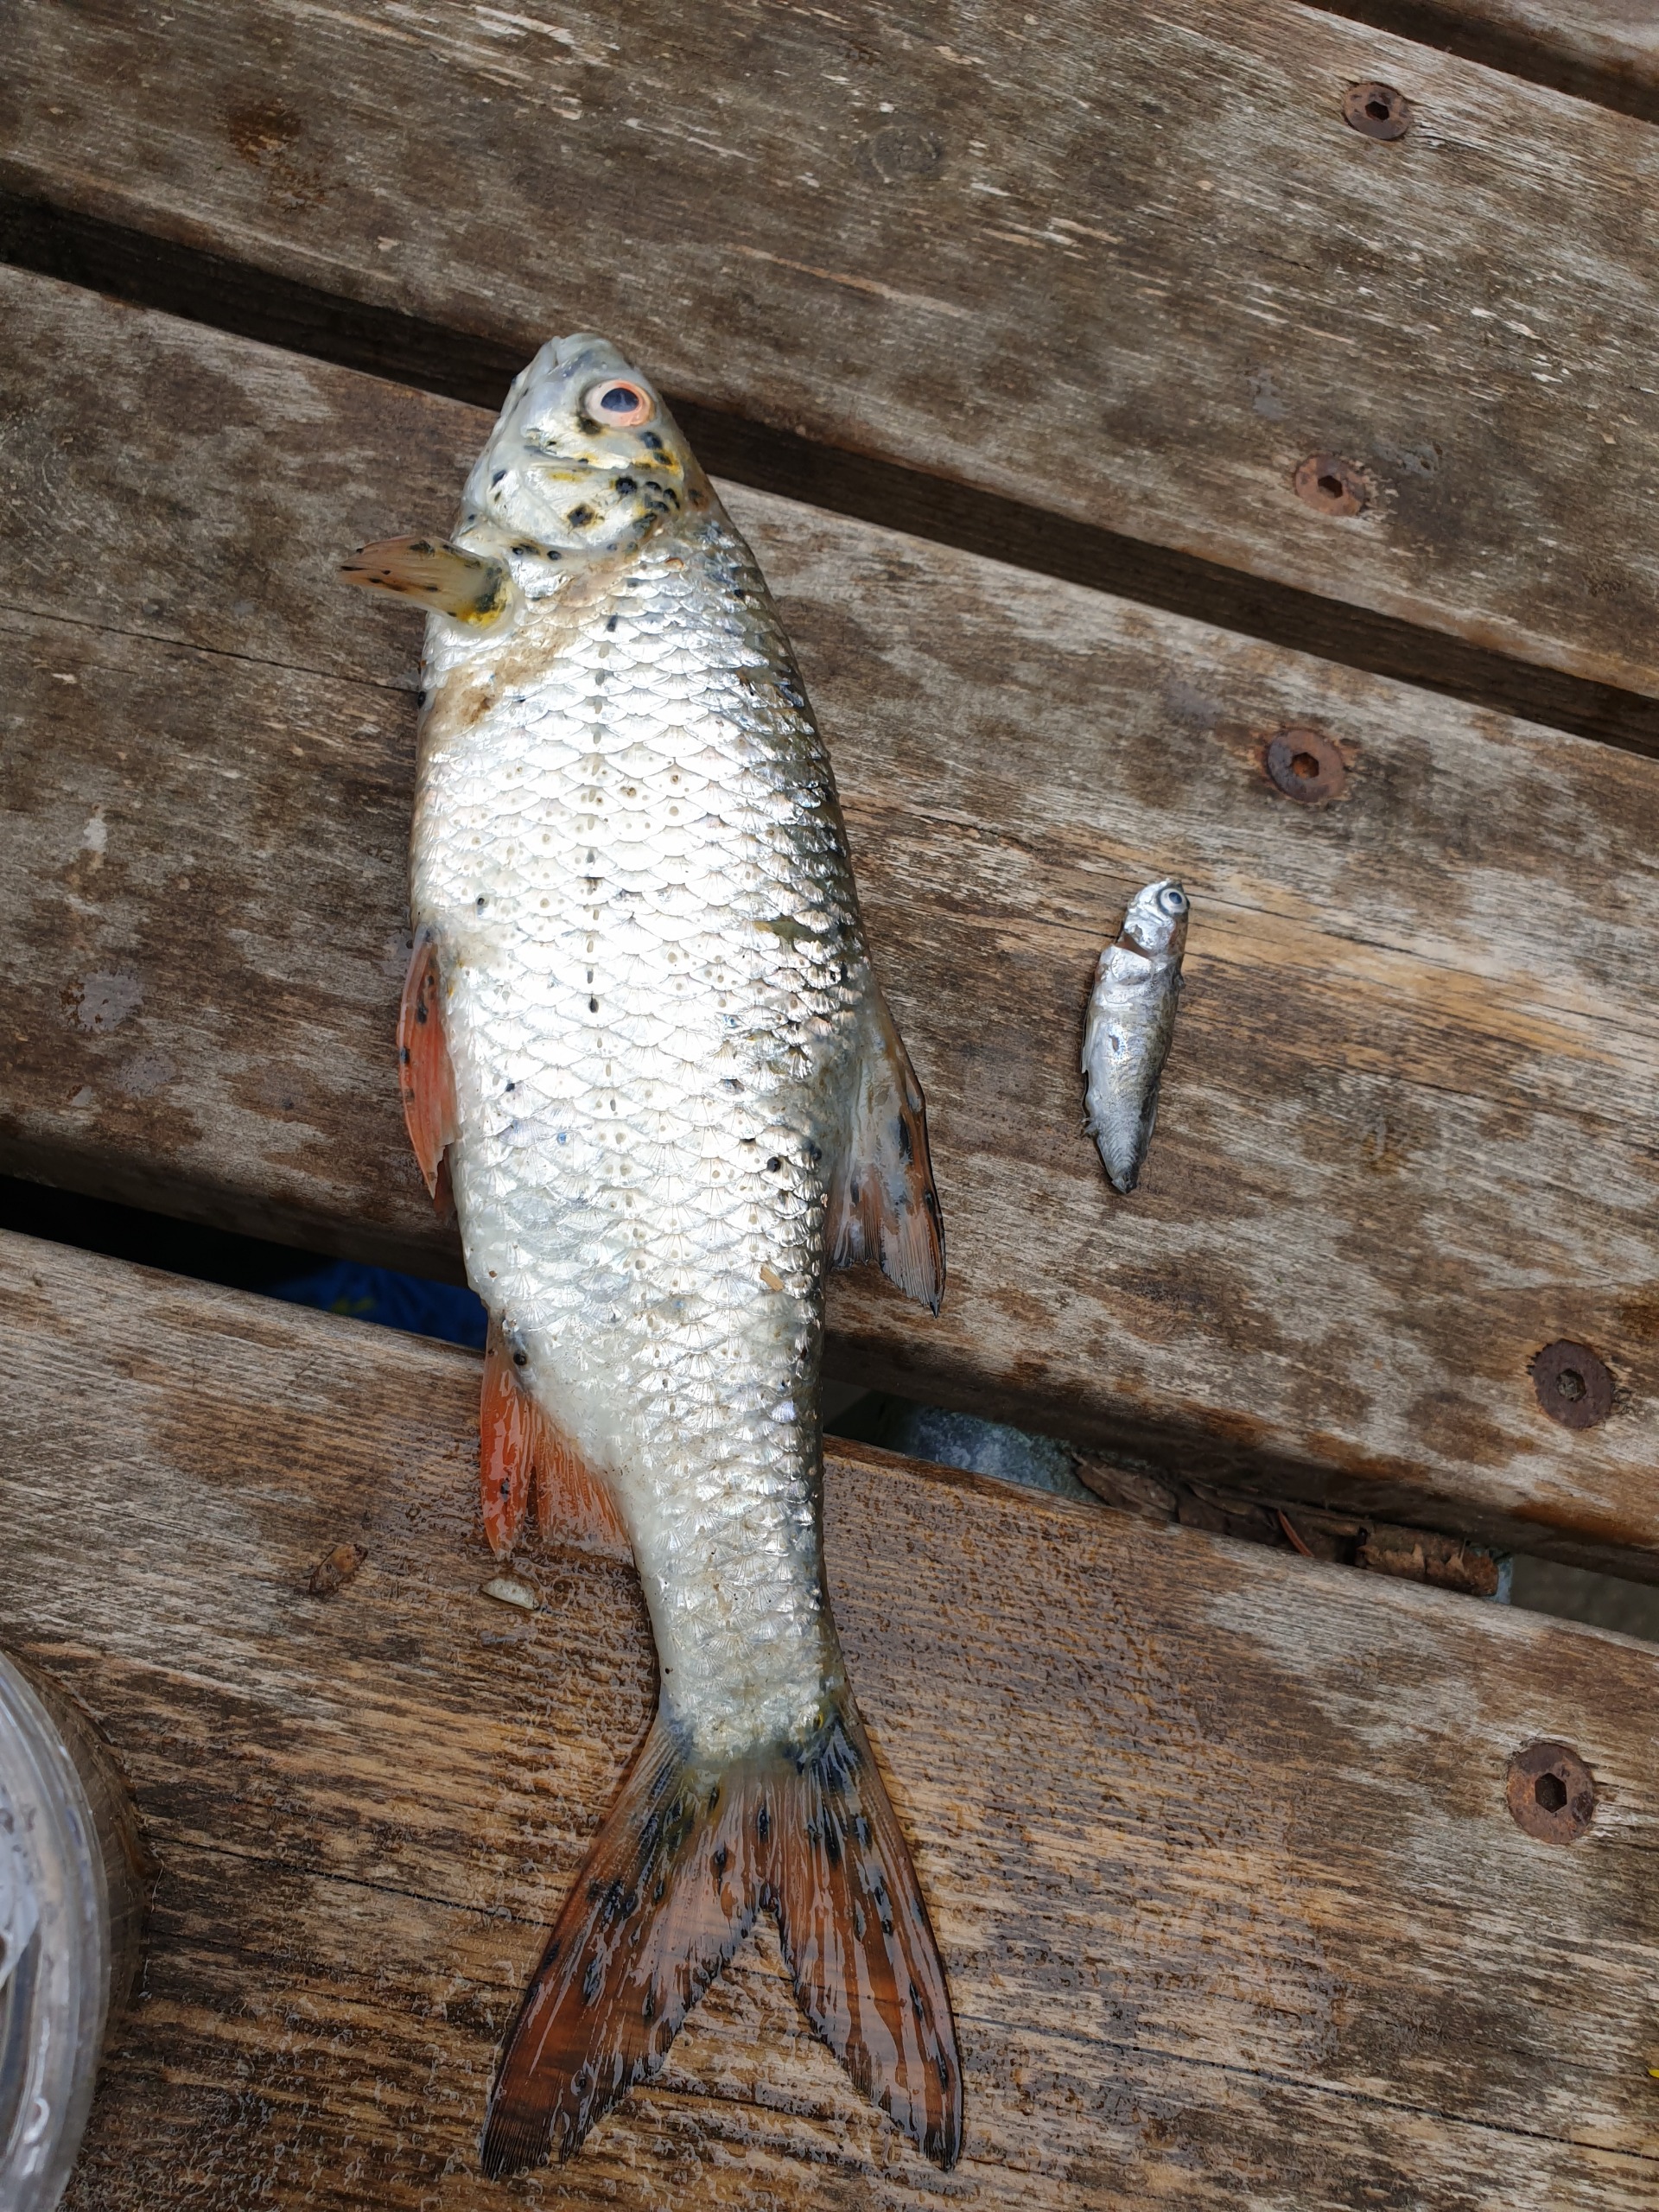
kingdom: Animalia
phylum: Chordata
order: Cypriniformes
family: Cyprinidae
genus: Rutilus
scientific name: Rutilus rutilus
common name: Skalle
